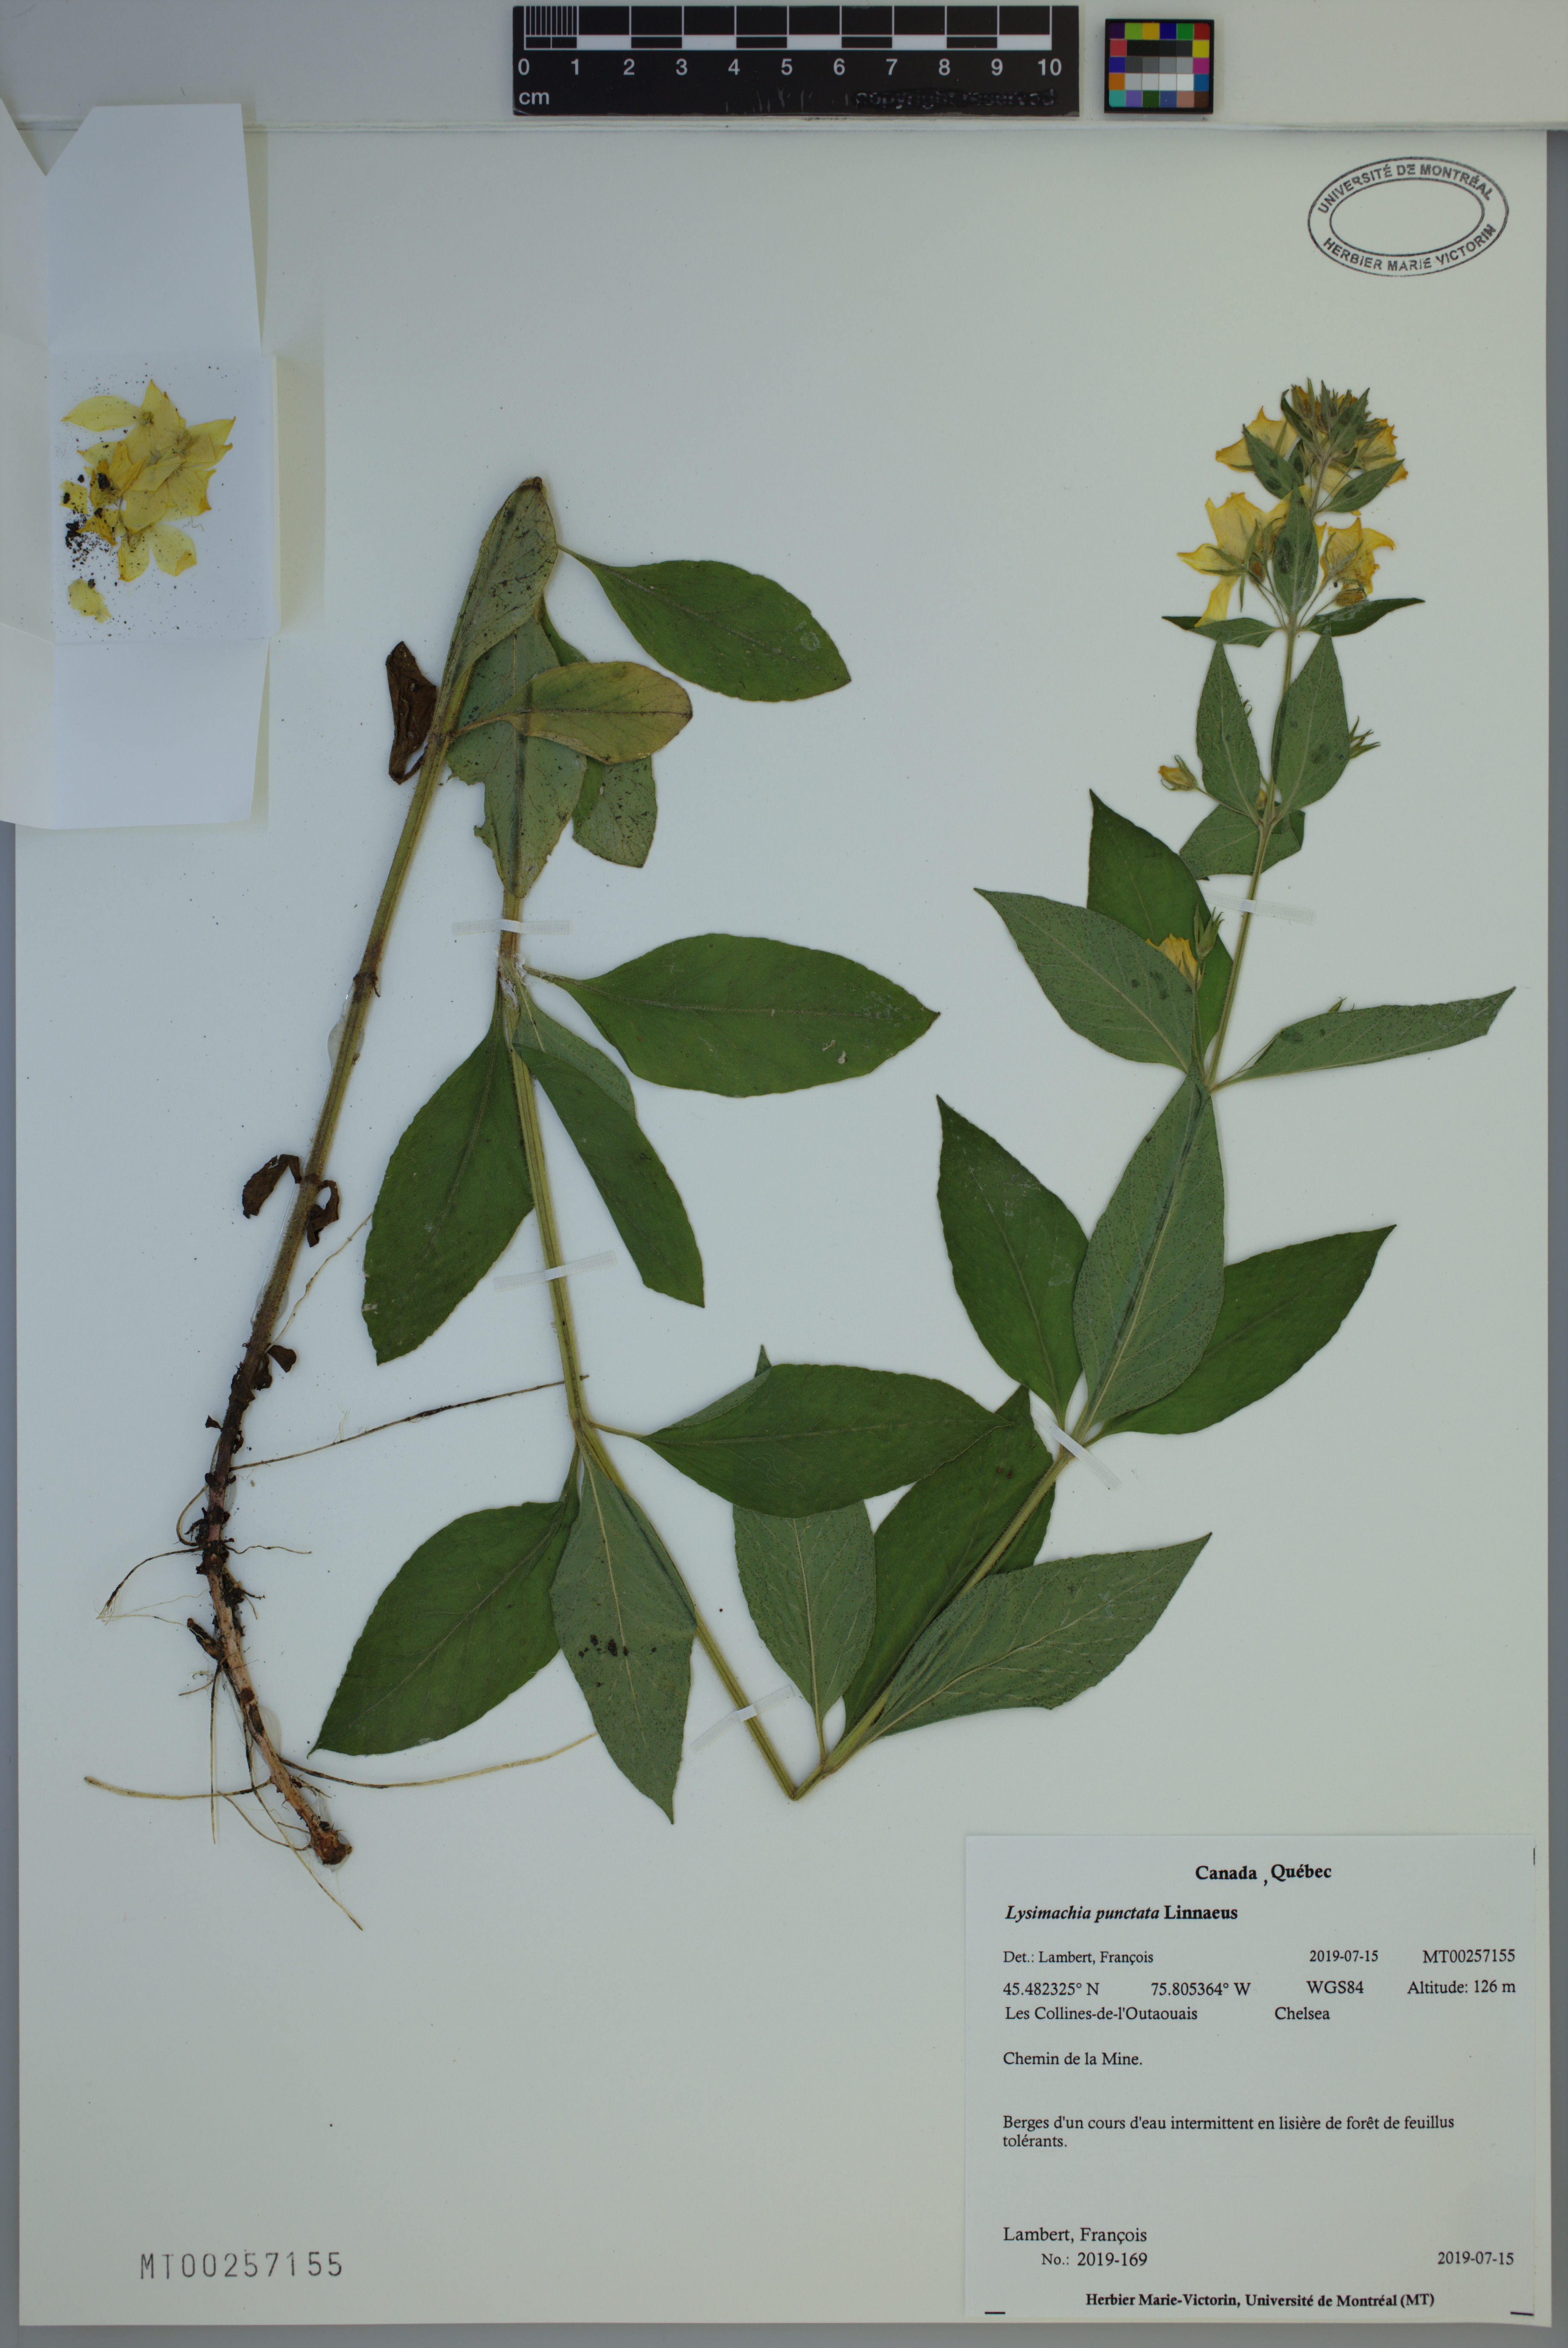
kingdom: Plantae
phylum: Tracheophyta
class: Magnoliopsida
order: Ericales
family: Primulaceae
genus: Lysimachia
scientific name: Lysimachia punctata
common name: Dotted loosestrife
